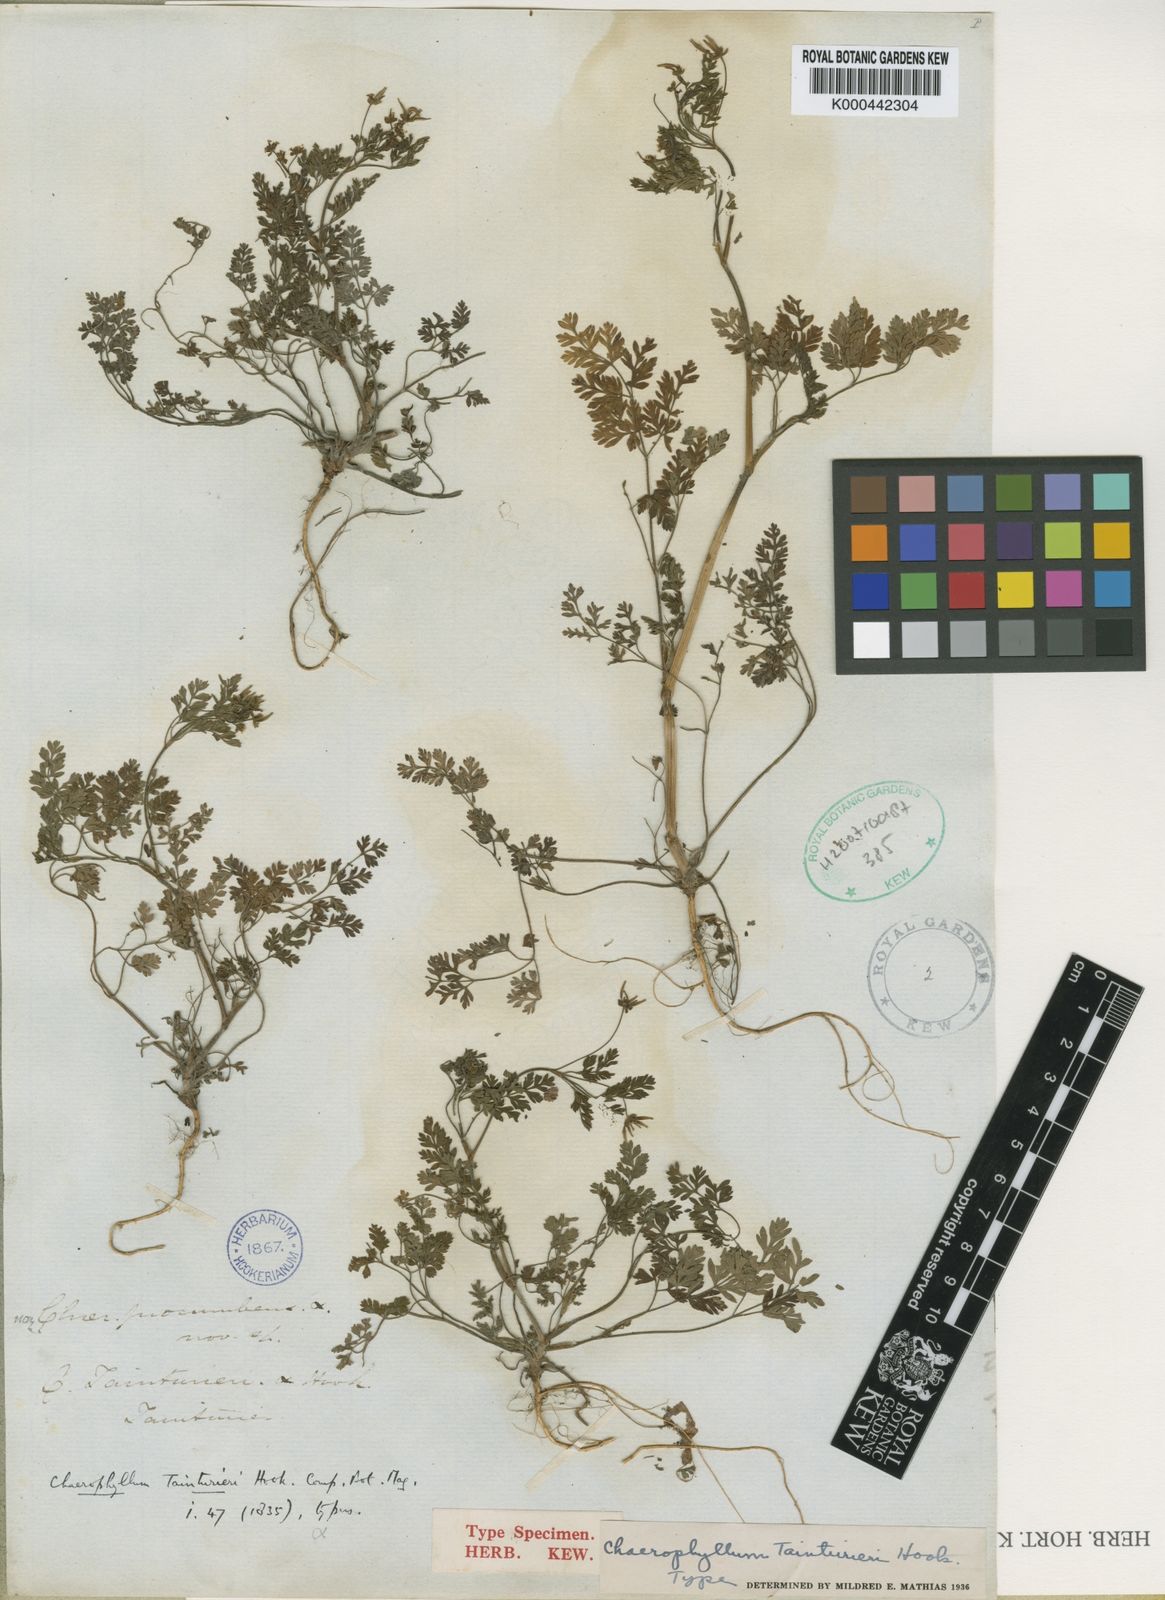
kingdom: Plantae
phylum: Tracheophyta
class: Magnoliopsida
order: Apiales
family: Apiaceae
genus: Chaerophyllum
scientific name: Chaerophyllum tainturieri
